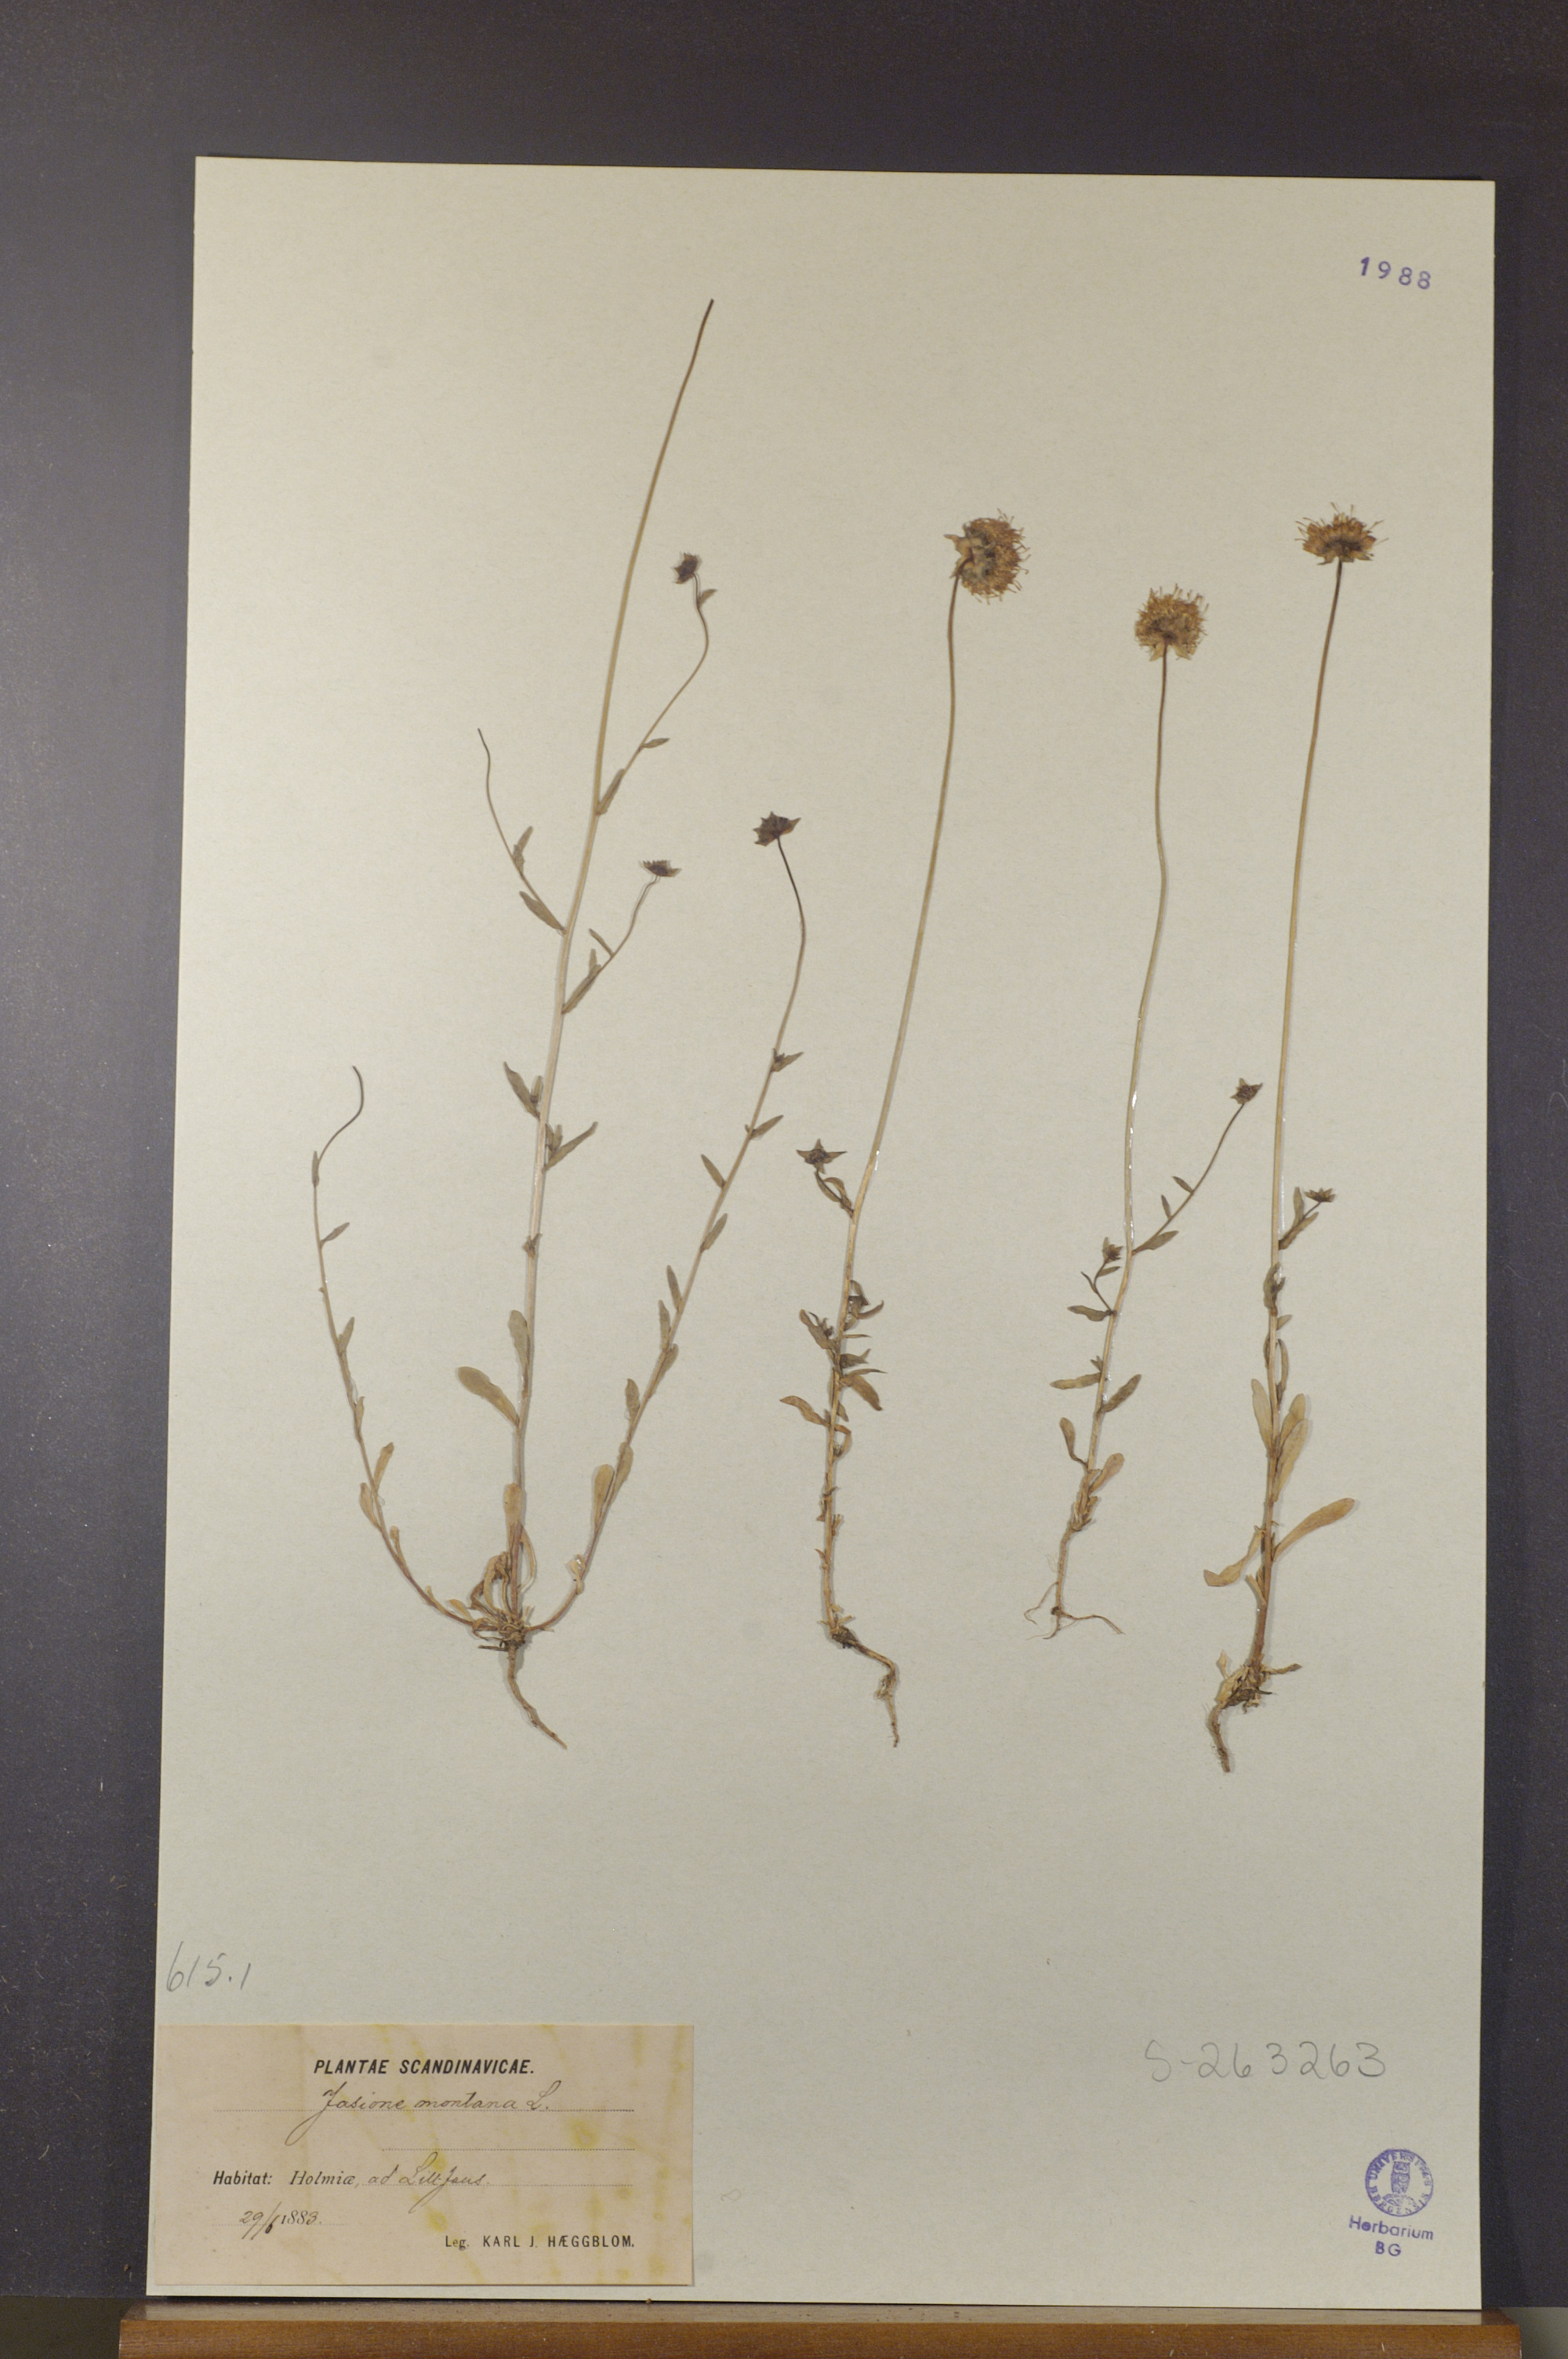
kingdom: Plantae
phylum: Tracheophyta
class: Magnoliopsida
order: Asterales
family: Campanulaceae
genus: Jasione
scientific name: Jasione montana
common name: Sheep's-bit
